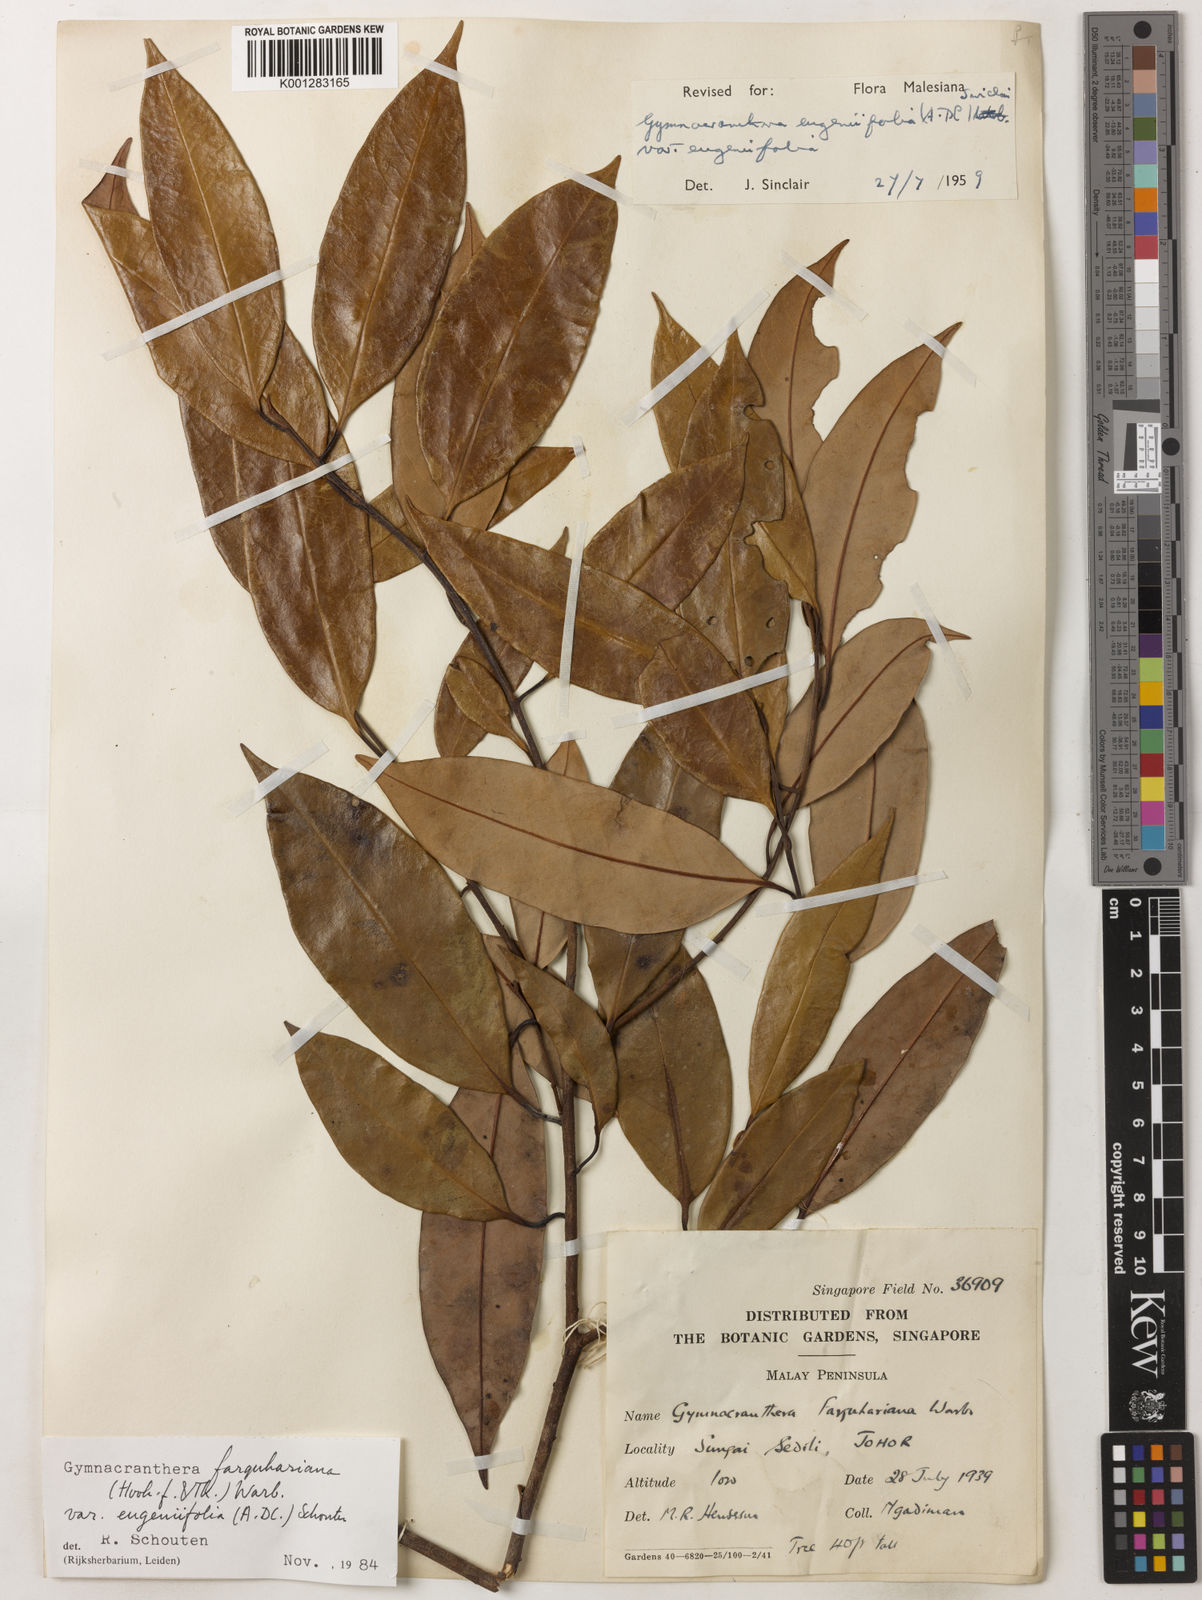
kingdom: Plantae
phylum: Tracheophyta
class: Magnoliopsida
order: Magnoliales
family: Myristicaceae
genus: Gymnacranthera
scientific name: Gymnacranthera farquhariana
